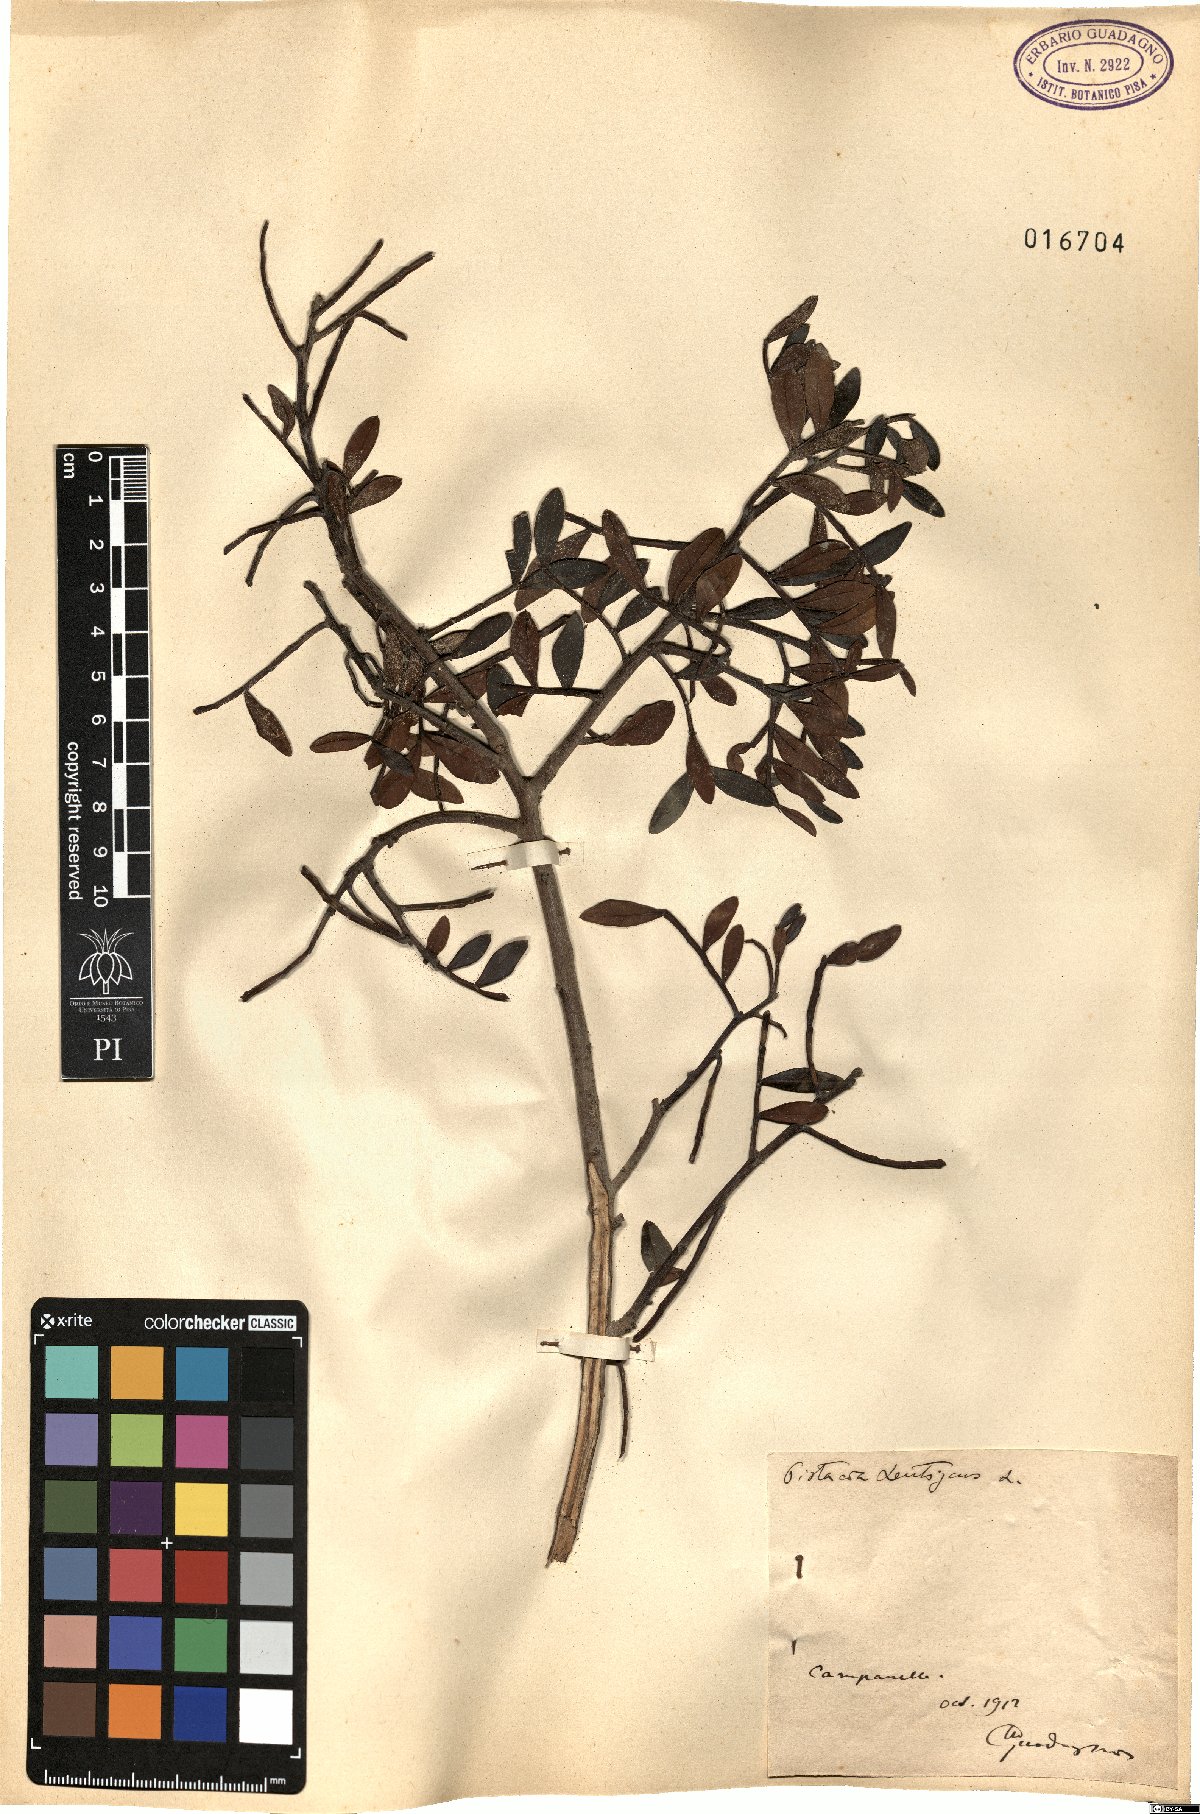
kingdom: Plantae
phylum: Tracheophyta
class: Magnoliopsida
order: Sapindales
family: Anacardiaceae
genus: Pistacia
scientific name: Pistacia lentiscus
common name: Lentisk
